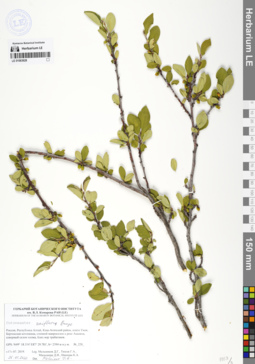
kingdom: Plantae
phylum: Tracheophyta
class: Magnoliopsida
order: Rosales
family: Rosaceae
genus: Cotoneaster
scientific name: Cotoneaster uniflorus
